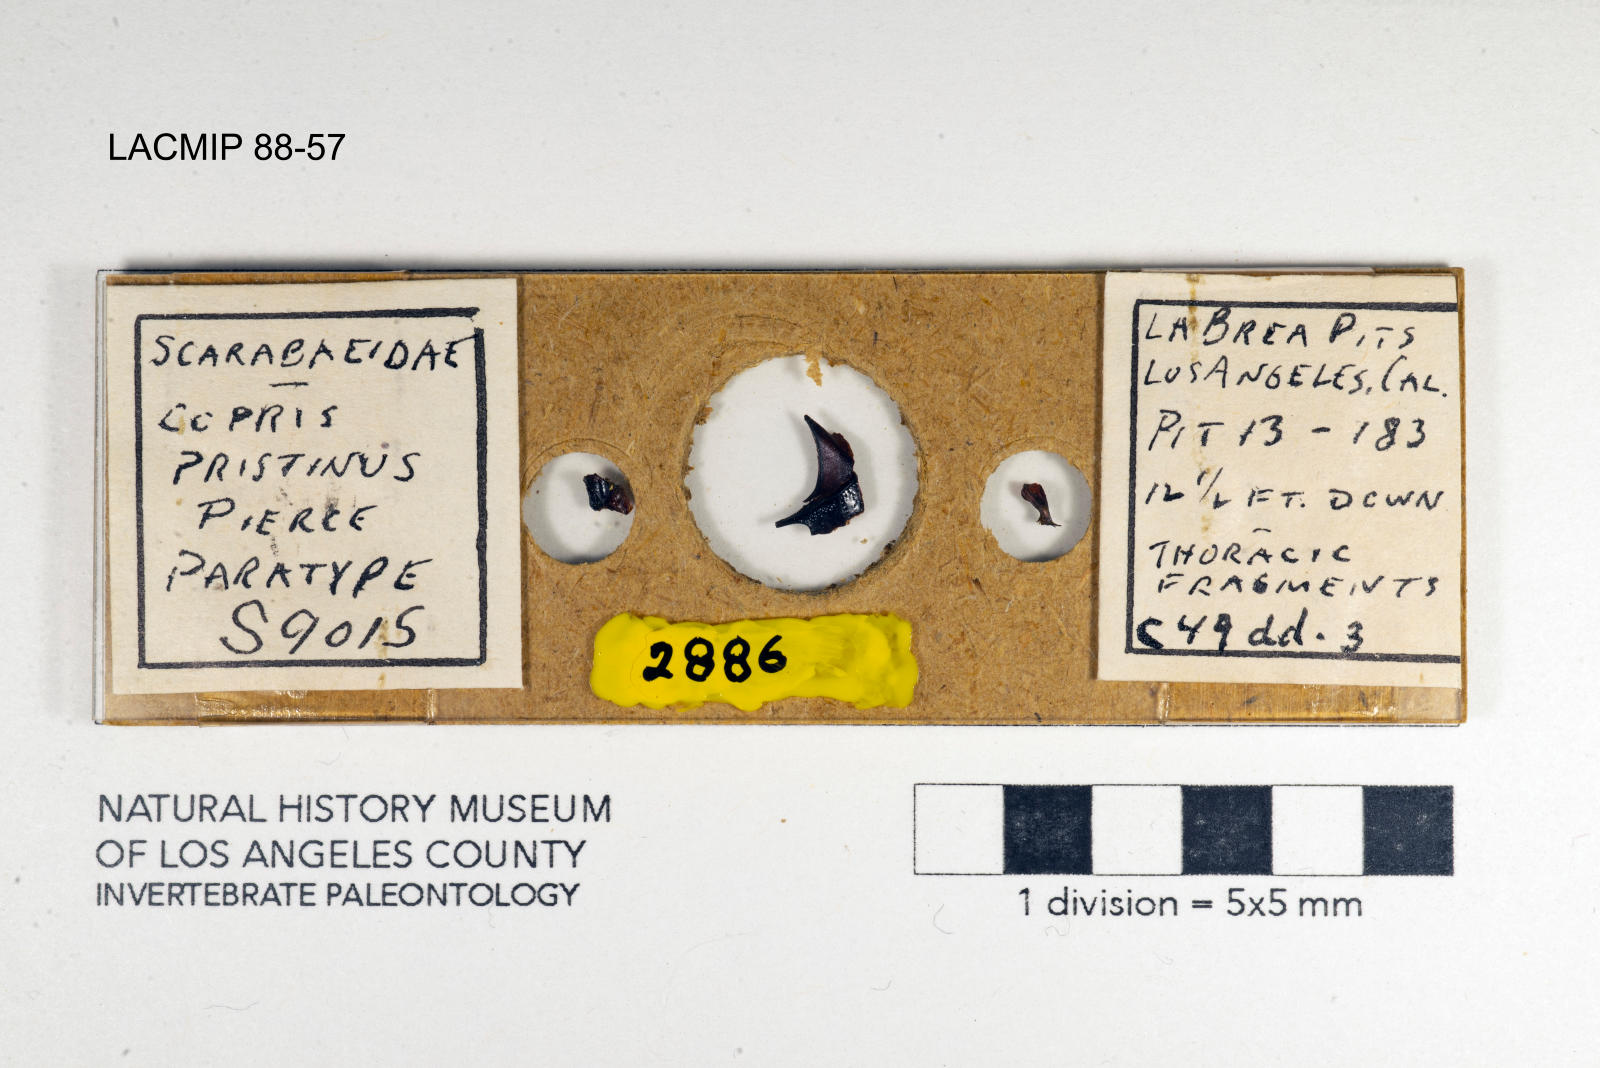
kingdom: Animalia
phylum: Arthropoda
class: Insecta
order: Coleoptera
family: Scarabaeidae
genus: Copris
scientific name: Copris pristinus
